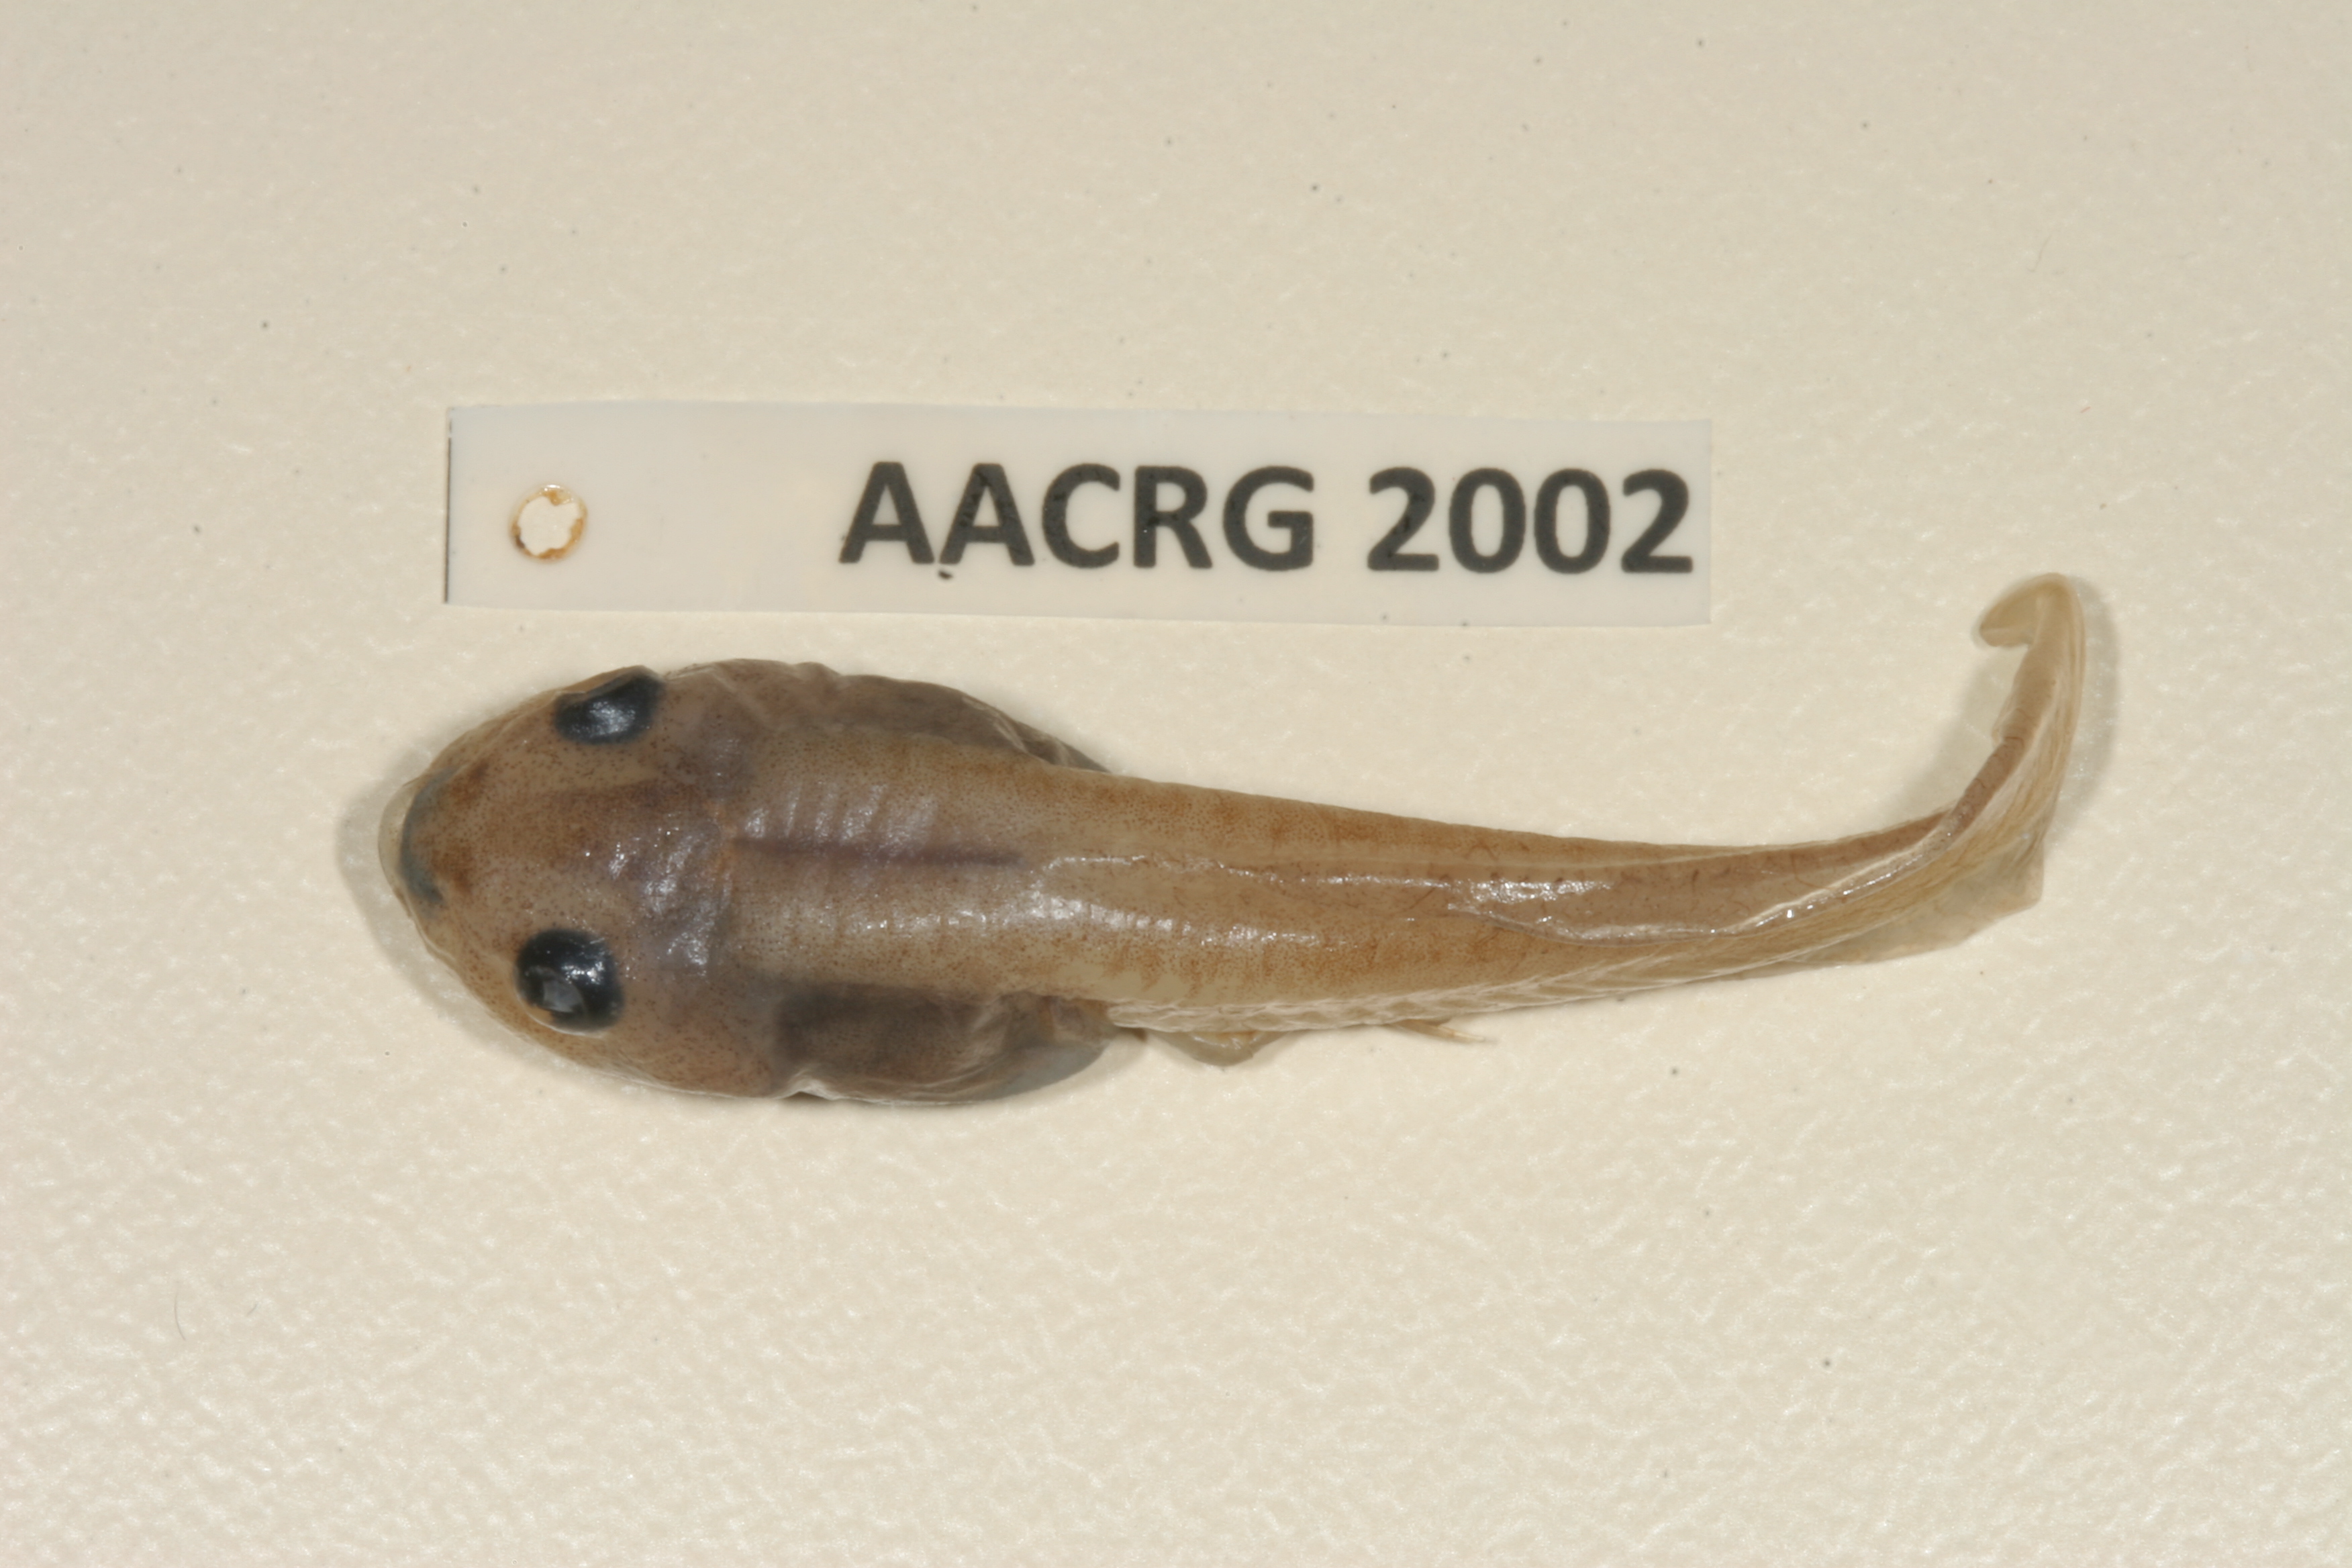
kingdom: Animalia
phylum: Chordata
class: Amphibia
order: Anura
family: Ptychadenidae
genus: Hildebrandtia
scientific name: Hildebrandtia ornata
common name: Ornate frog
